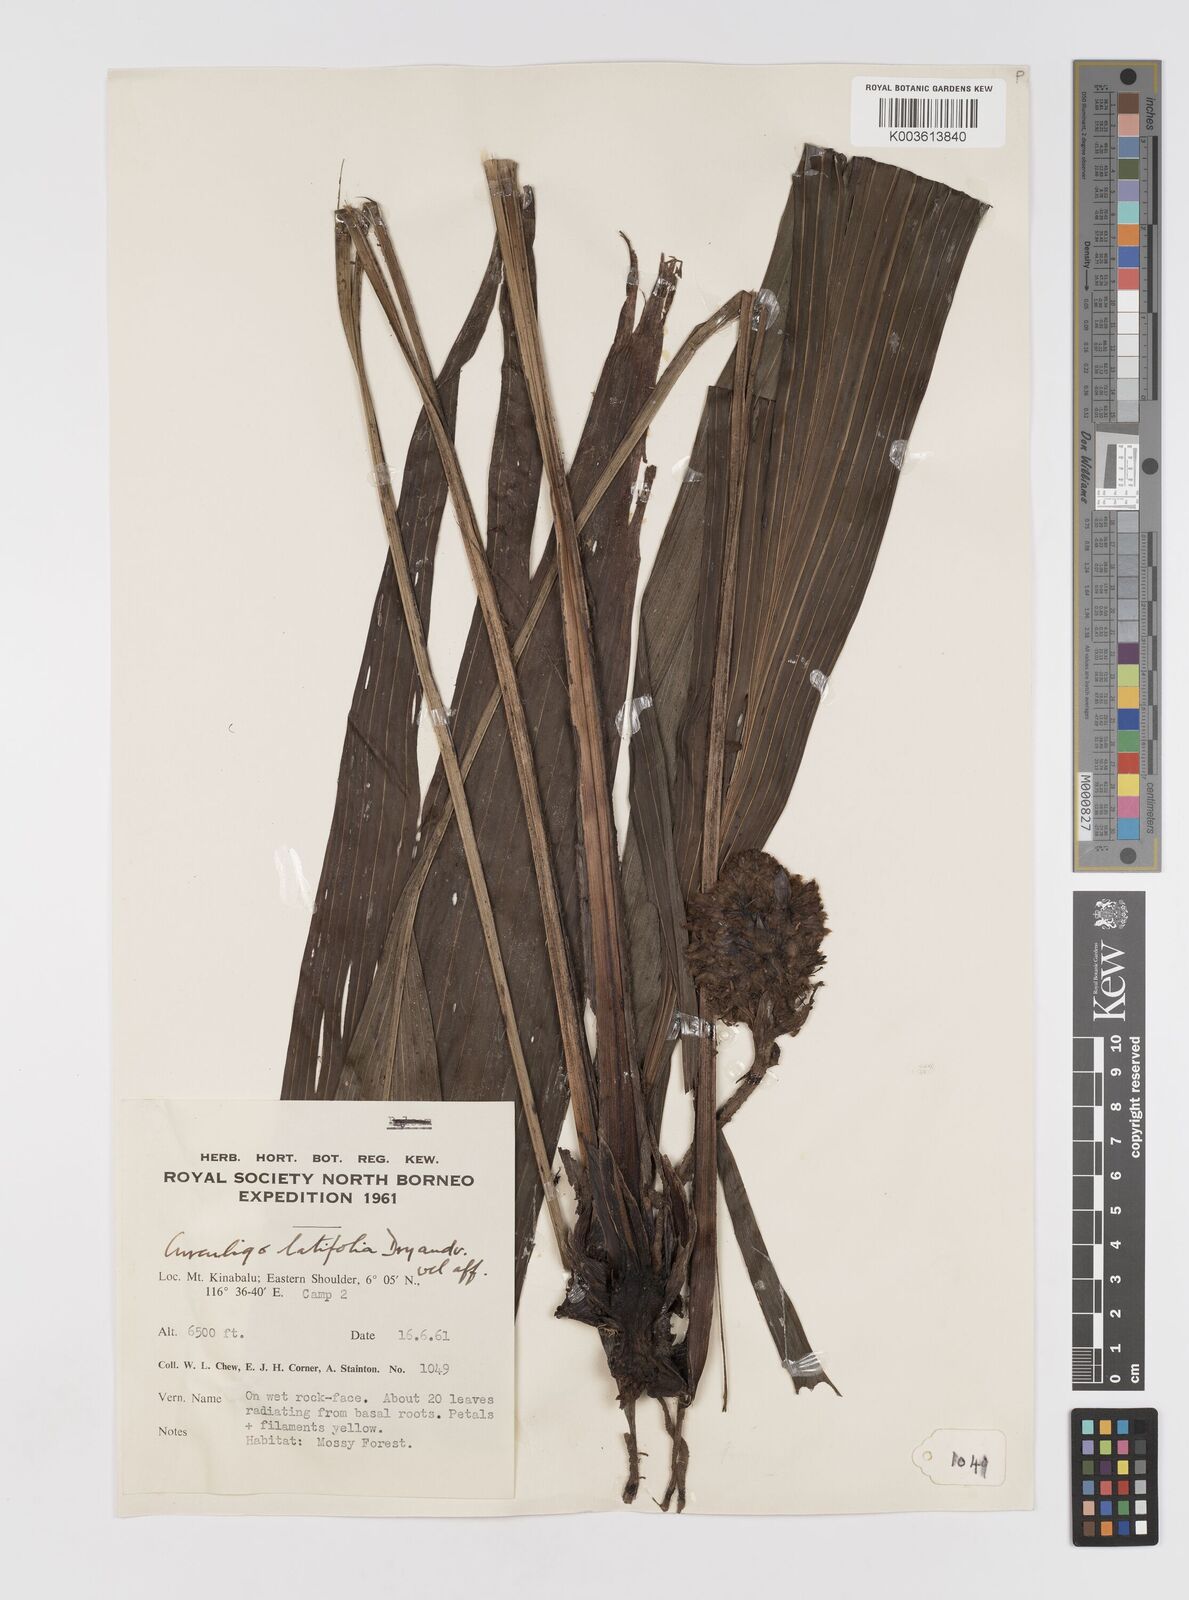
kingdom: Plantae
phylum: Tracheophyta
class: Liliopsida
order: Asparagales
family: Hypoxidaceae
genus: Curculigo
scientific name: Curculigo capitulata
